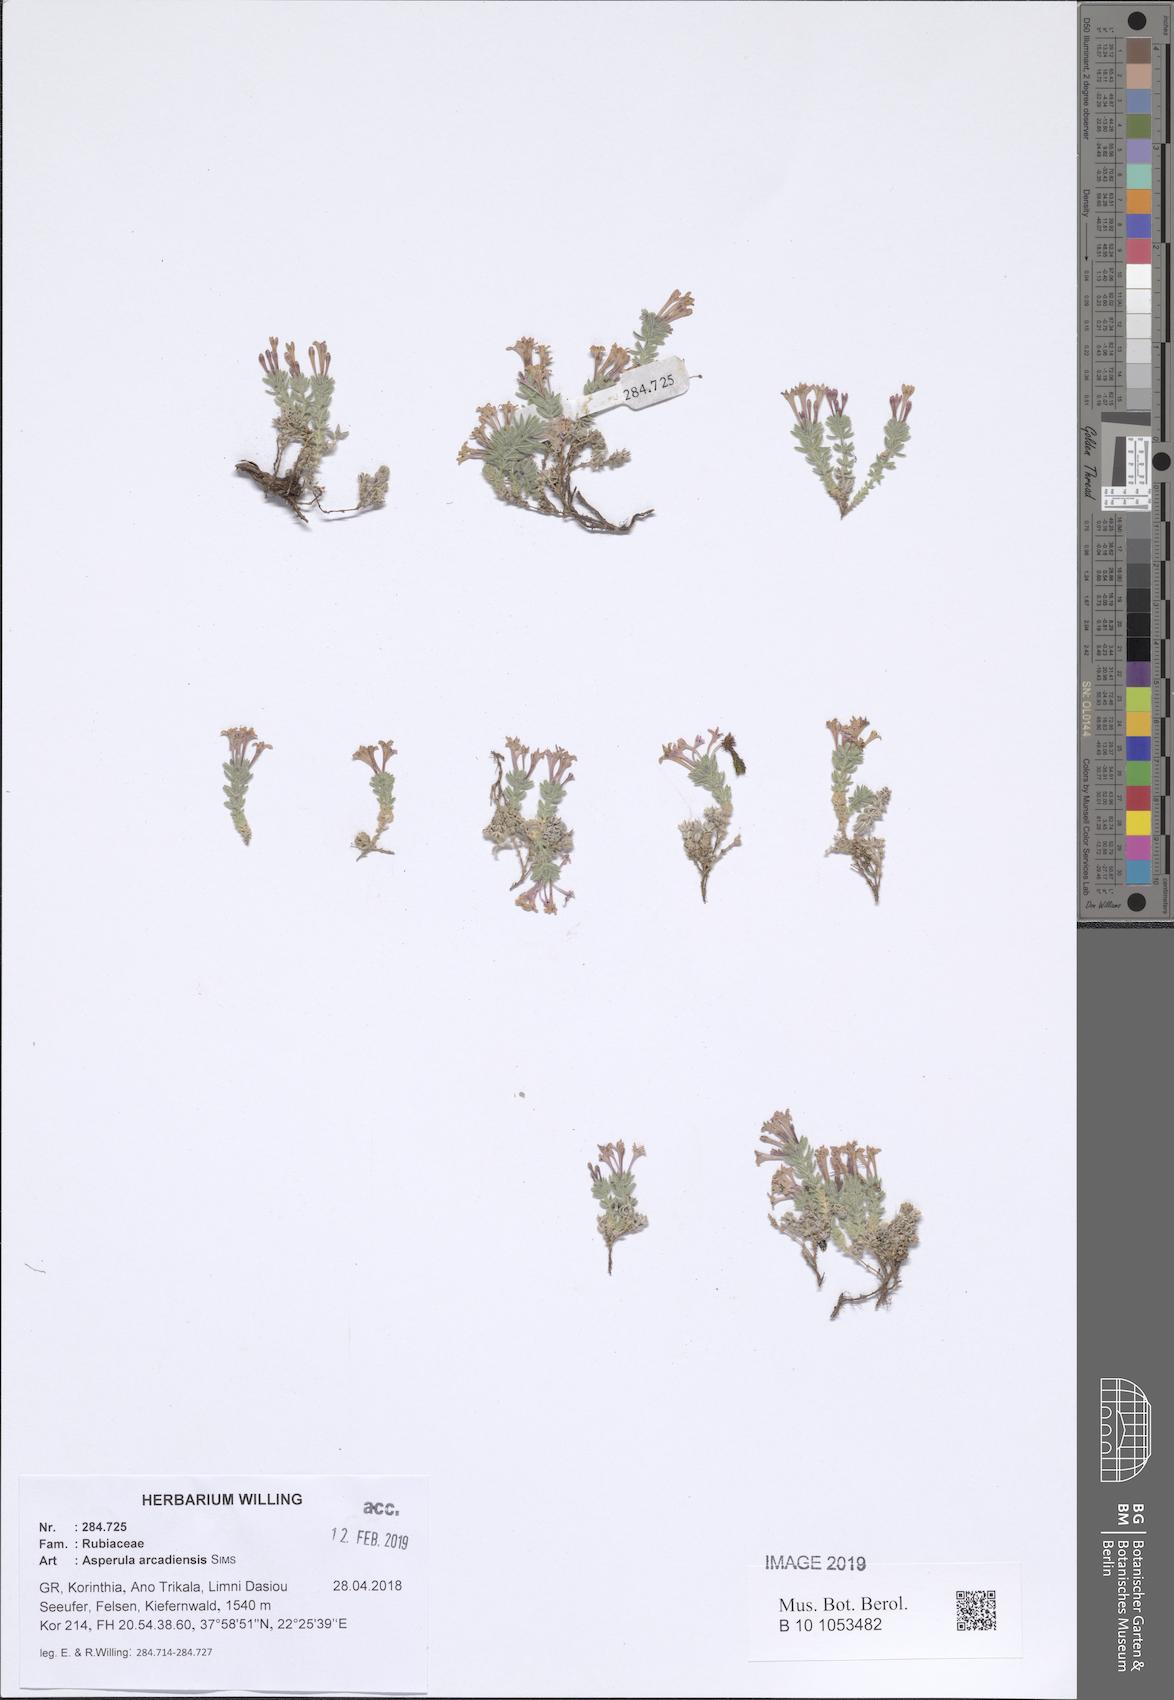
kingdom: Plantae
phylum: Tracheophyta
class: Magnoliopsida
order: Gentianales
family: Rubiaceae
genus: Hexaphylla
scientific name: Hexaphylla arcadiensis
